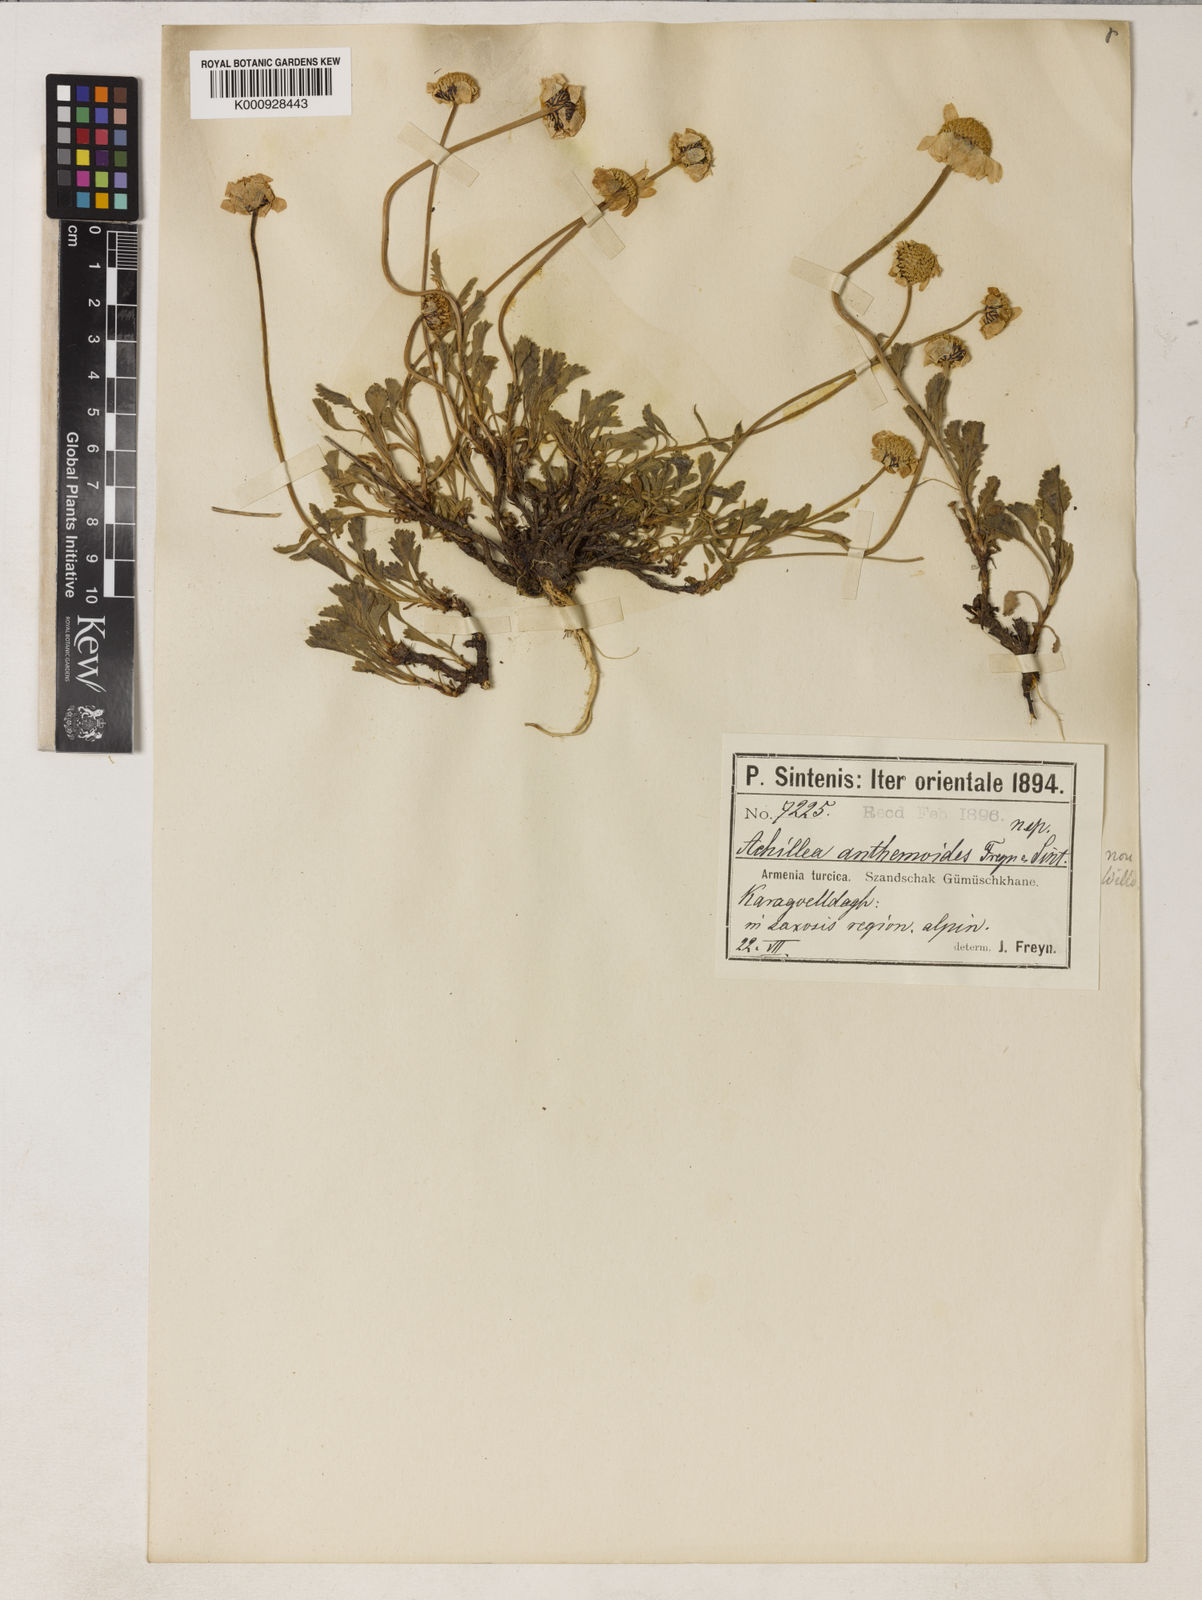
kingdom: Plantae
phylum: Tracheophyta
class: Magnoliopsida
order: Asterales
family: Asteraceae
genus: Anthemis
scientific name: Anthemis anthemiformis
